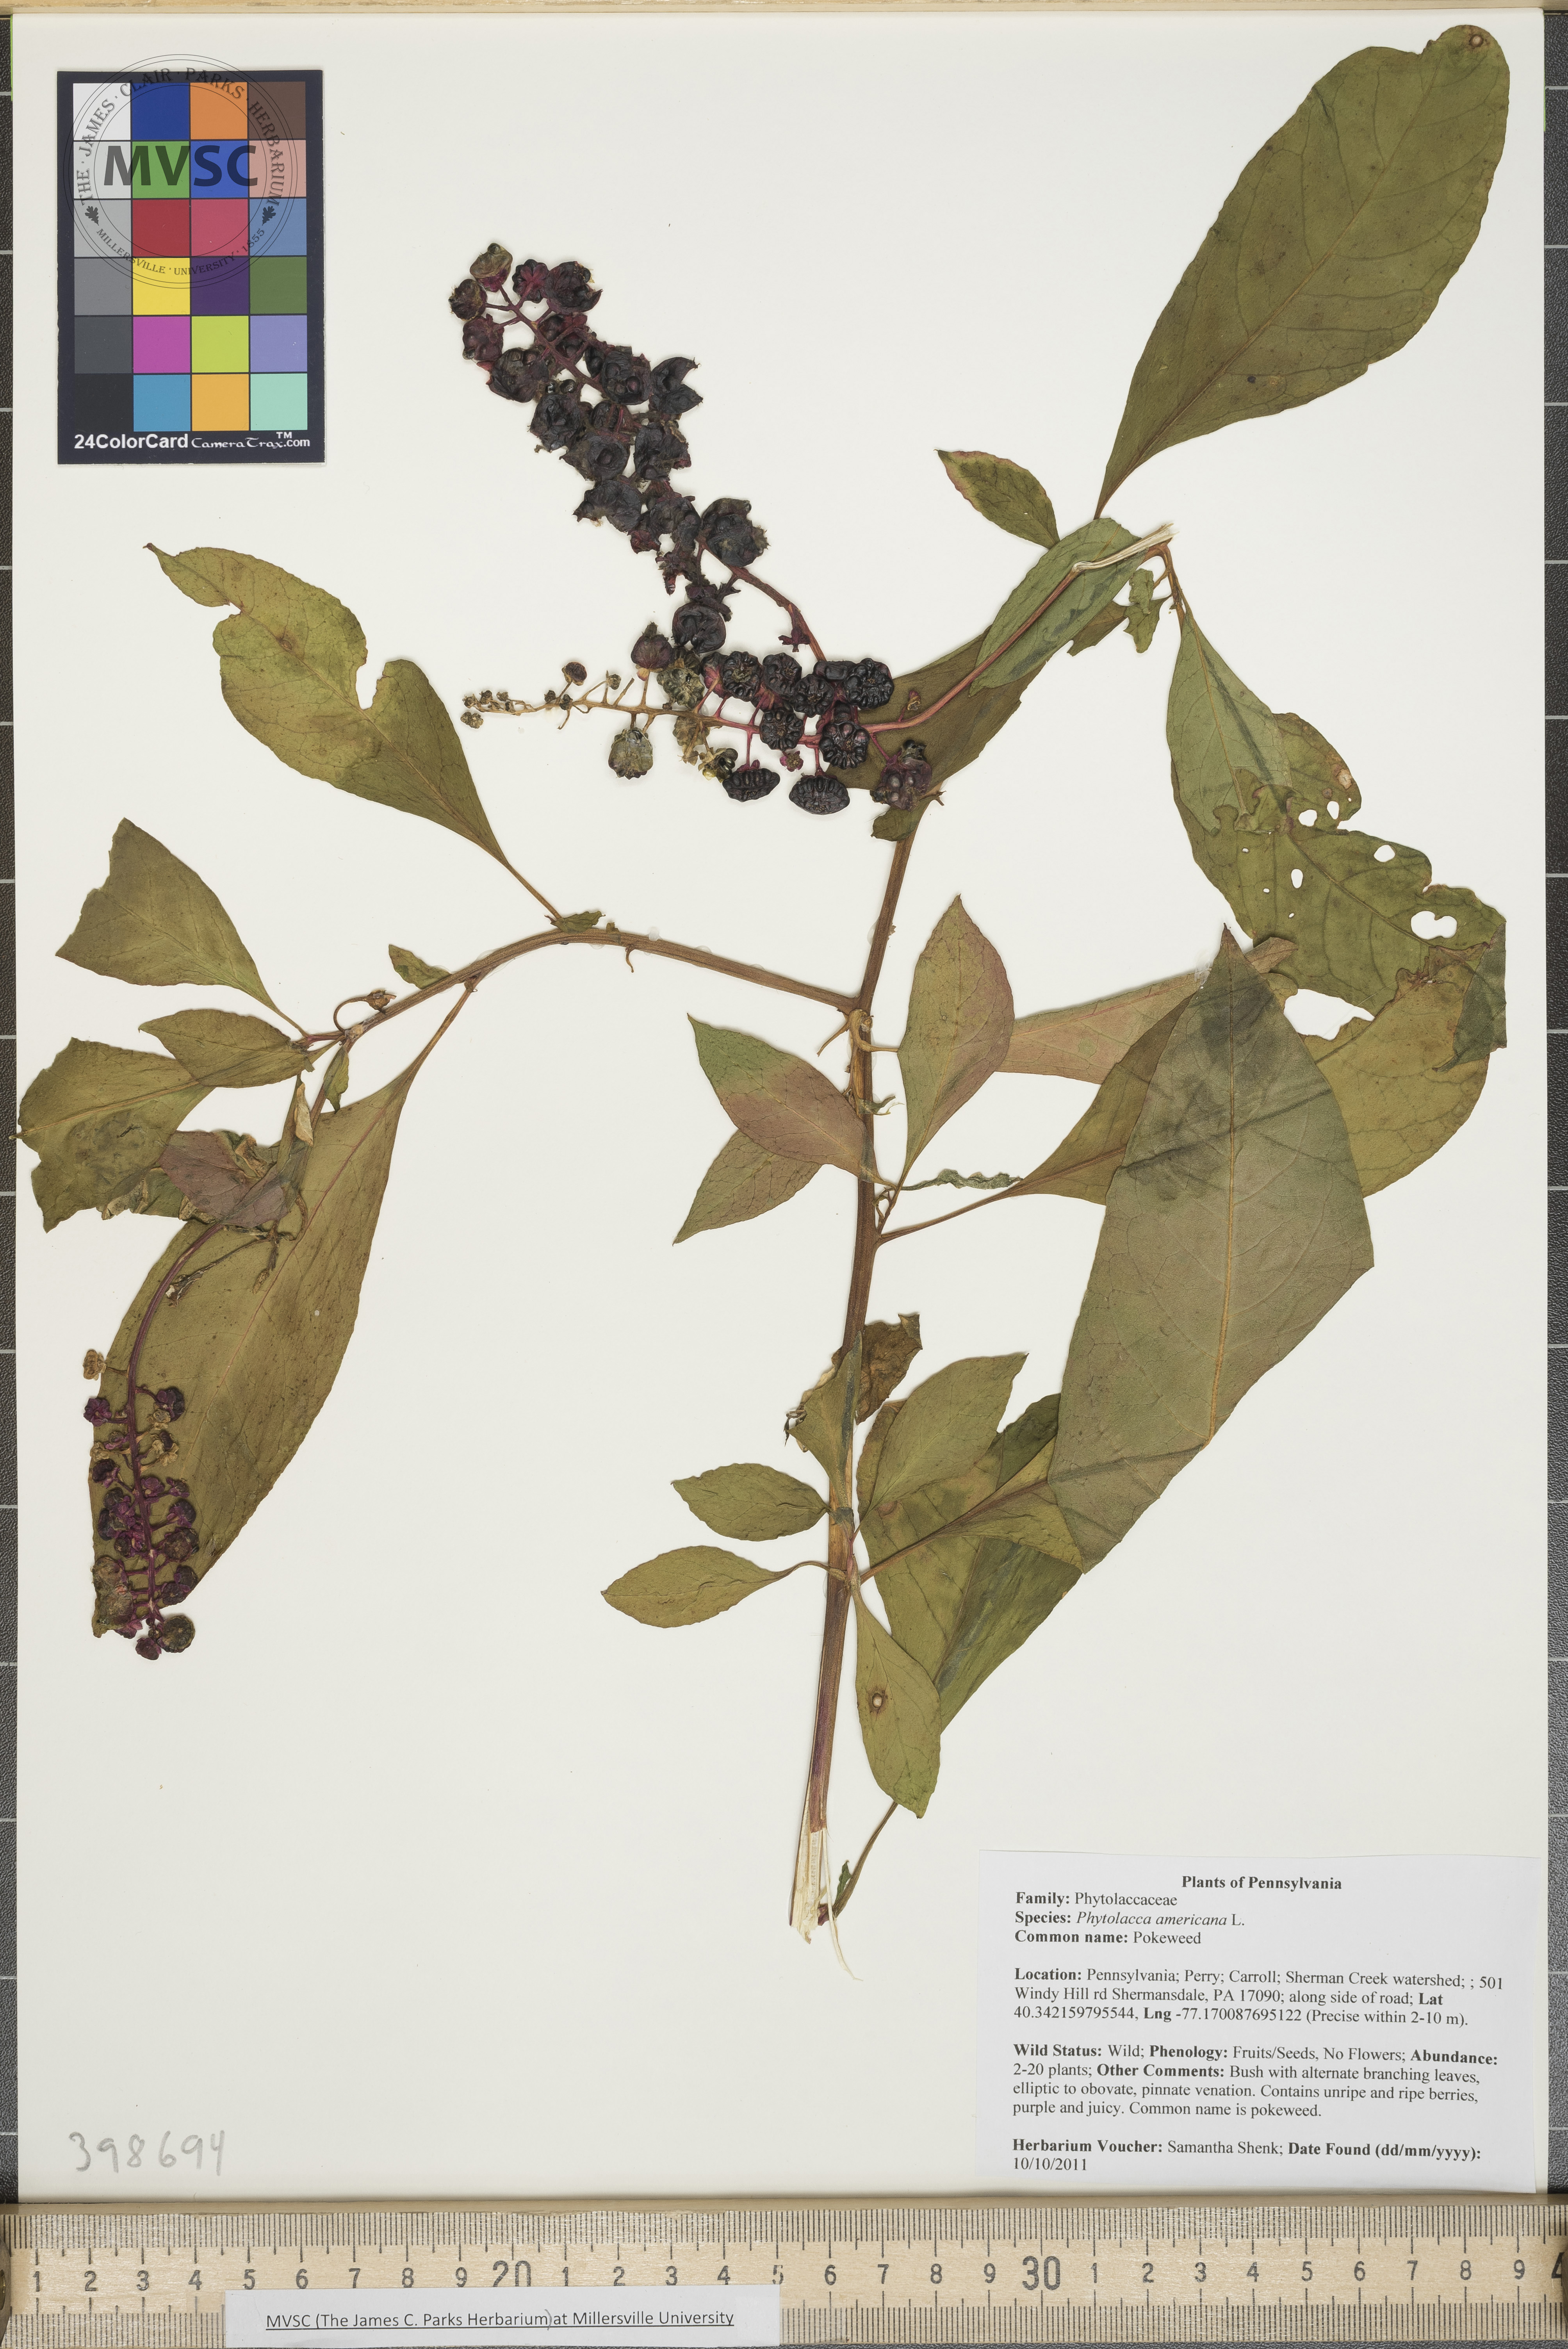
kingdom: Plantae
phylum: Tracheophyta
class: Magnoliopsida
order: Caryophyllales
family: Phytolaccaceae
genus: Phytolacca
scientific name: Phytolacca americana
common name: Pokeweed
